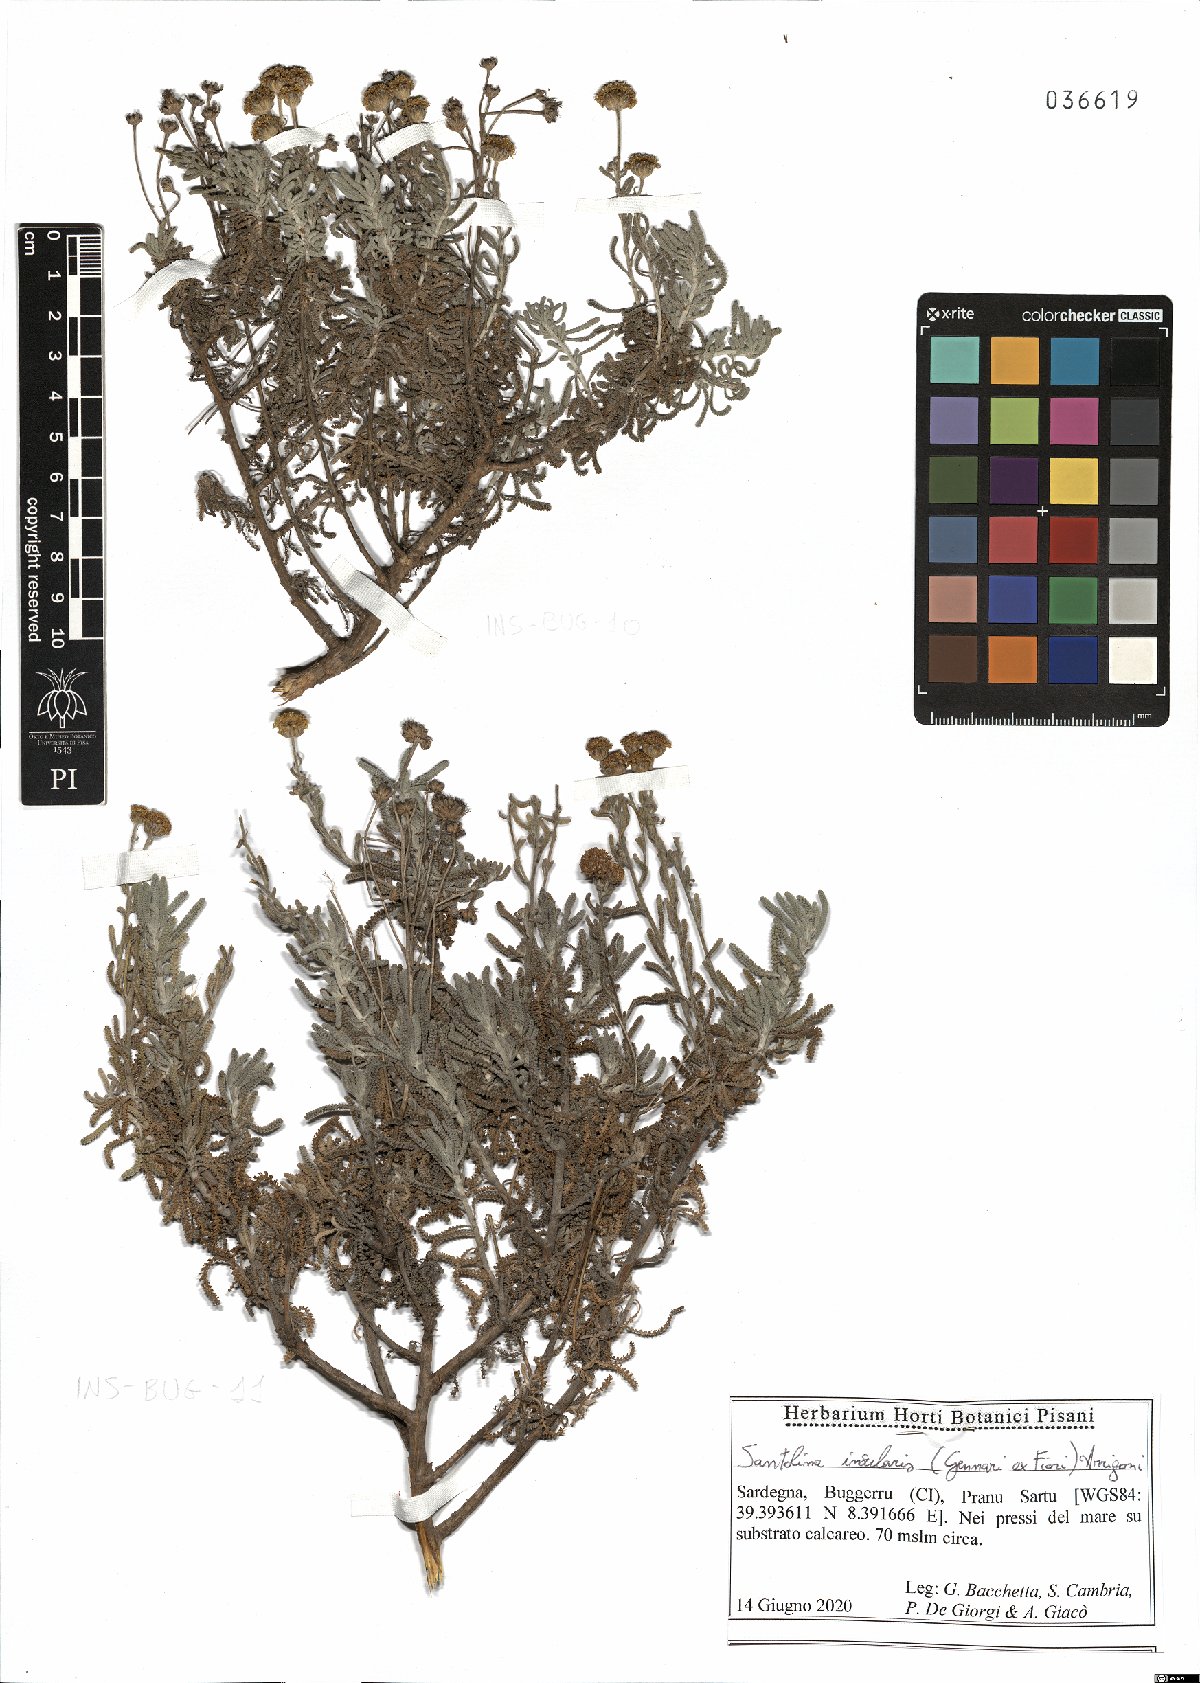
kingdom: Plantae
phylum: Tracheophyta
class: Magnoliopsida
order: Asterales
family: Asteraceae
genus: Santolina
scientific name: Santolina insularis
